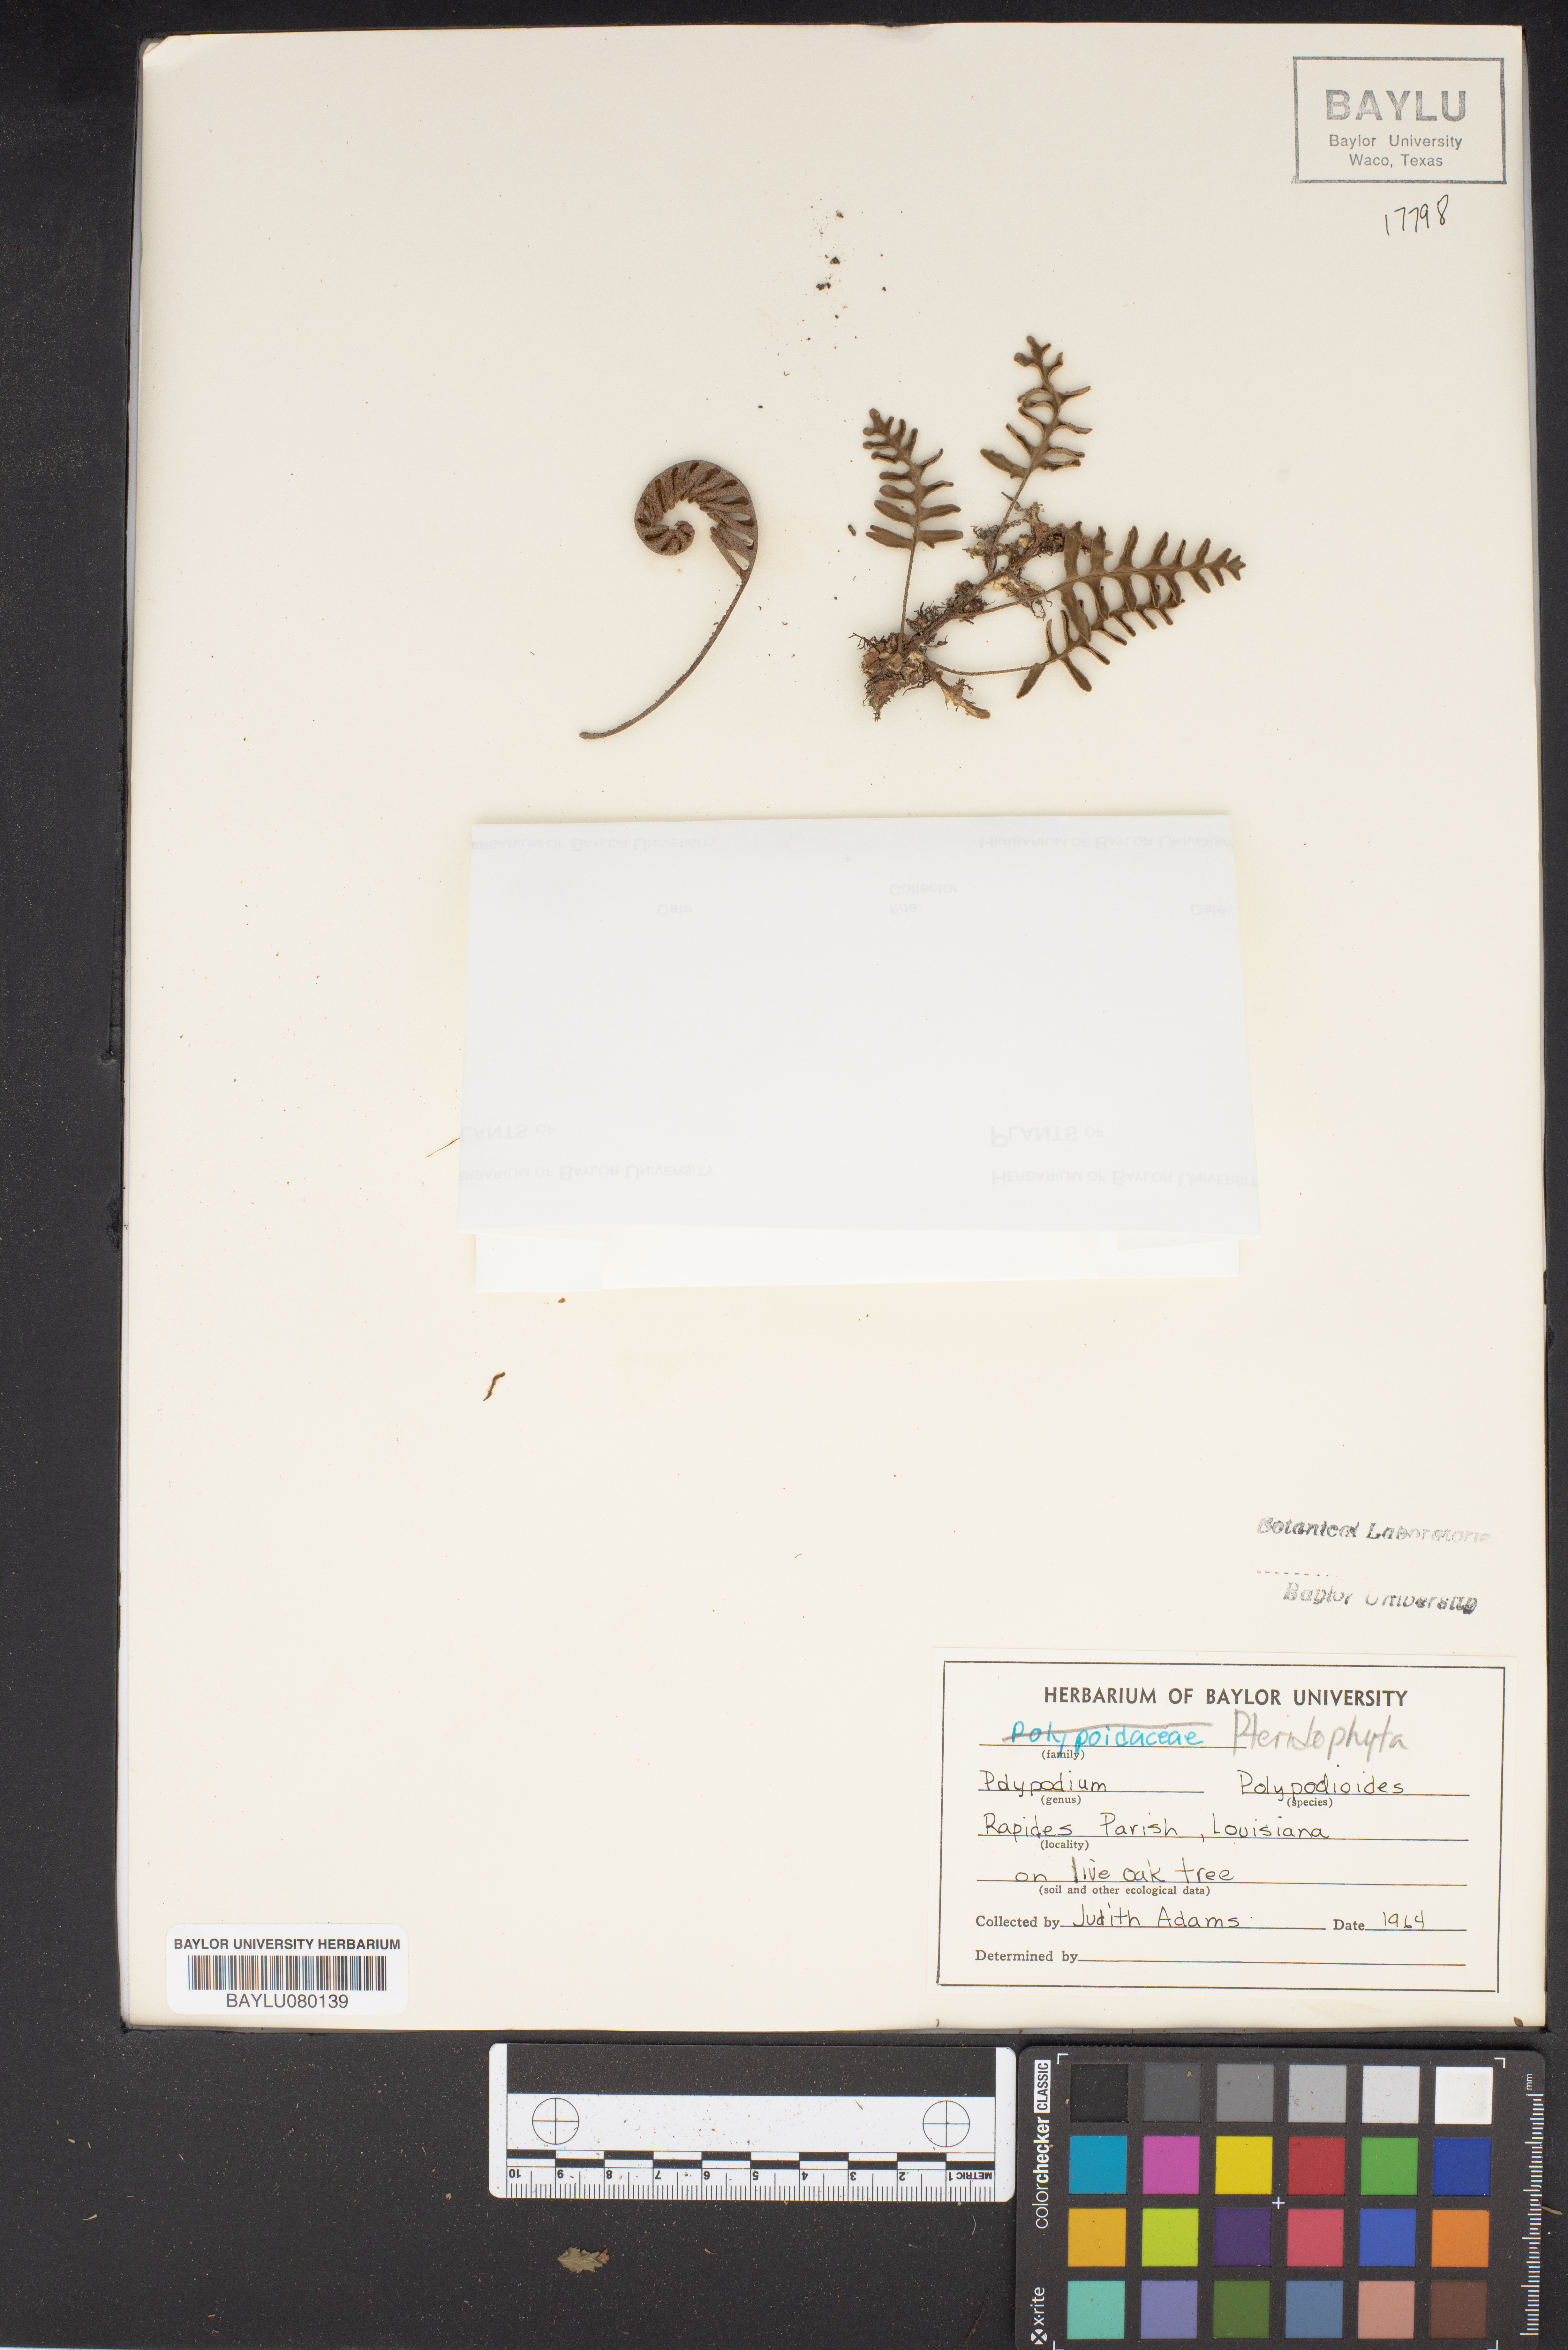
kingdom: Plantae
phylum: Tracheophyta
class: Polypodiopsida
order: Polypodiales
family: Polypodiaceae
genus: Pleopeltis
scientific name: Pleopeltis polypodioides
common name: Resurrection fern
